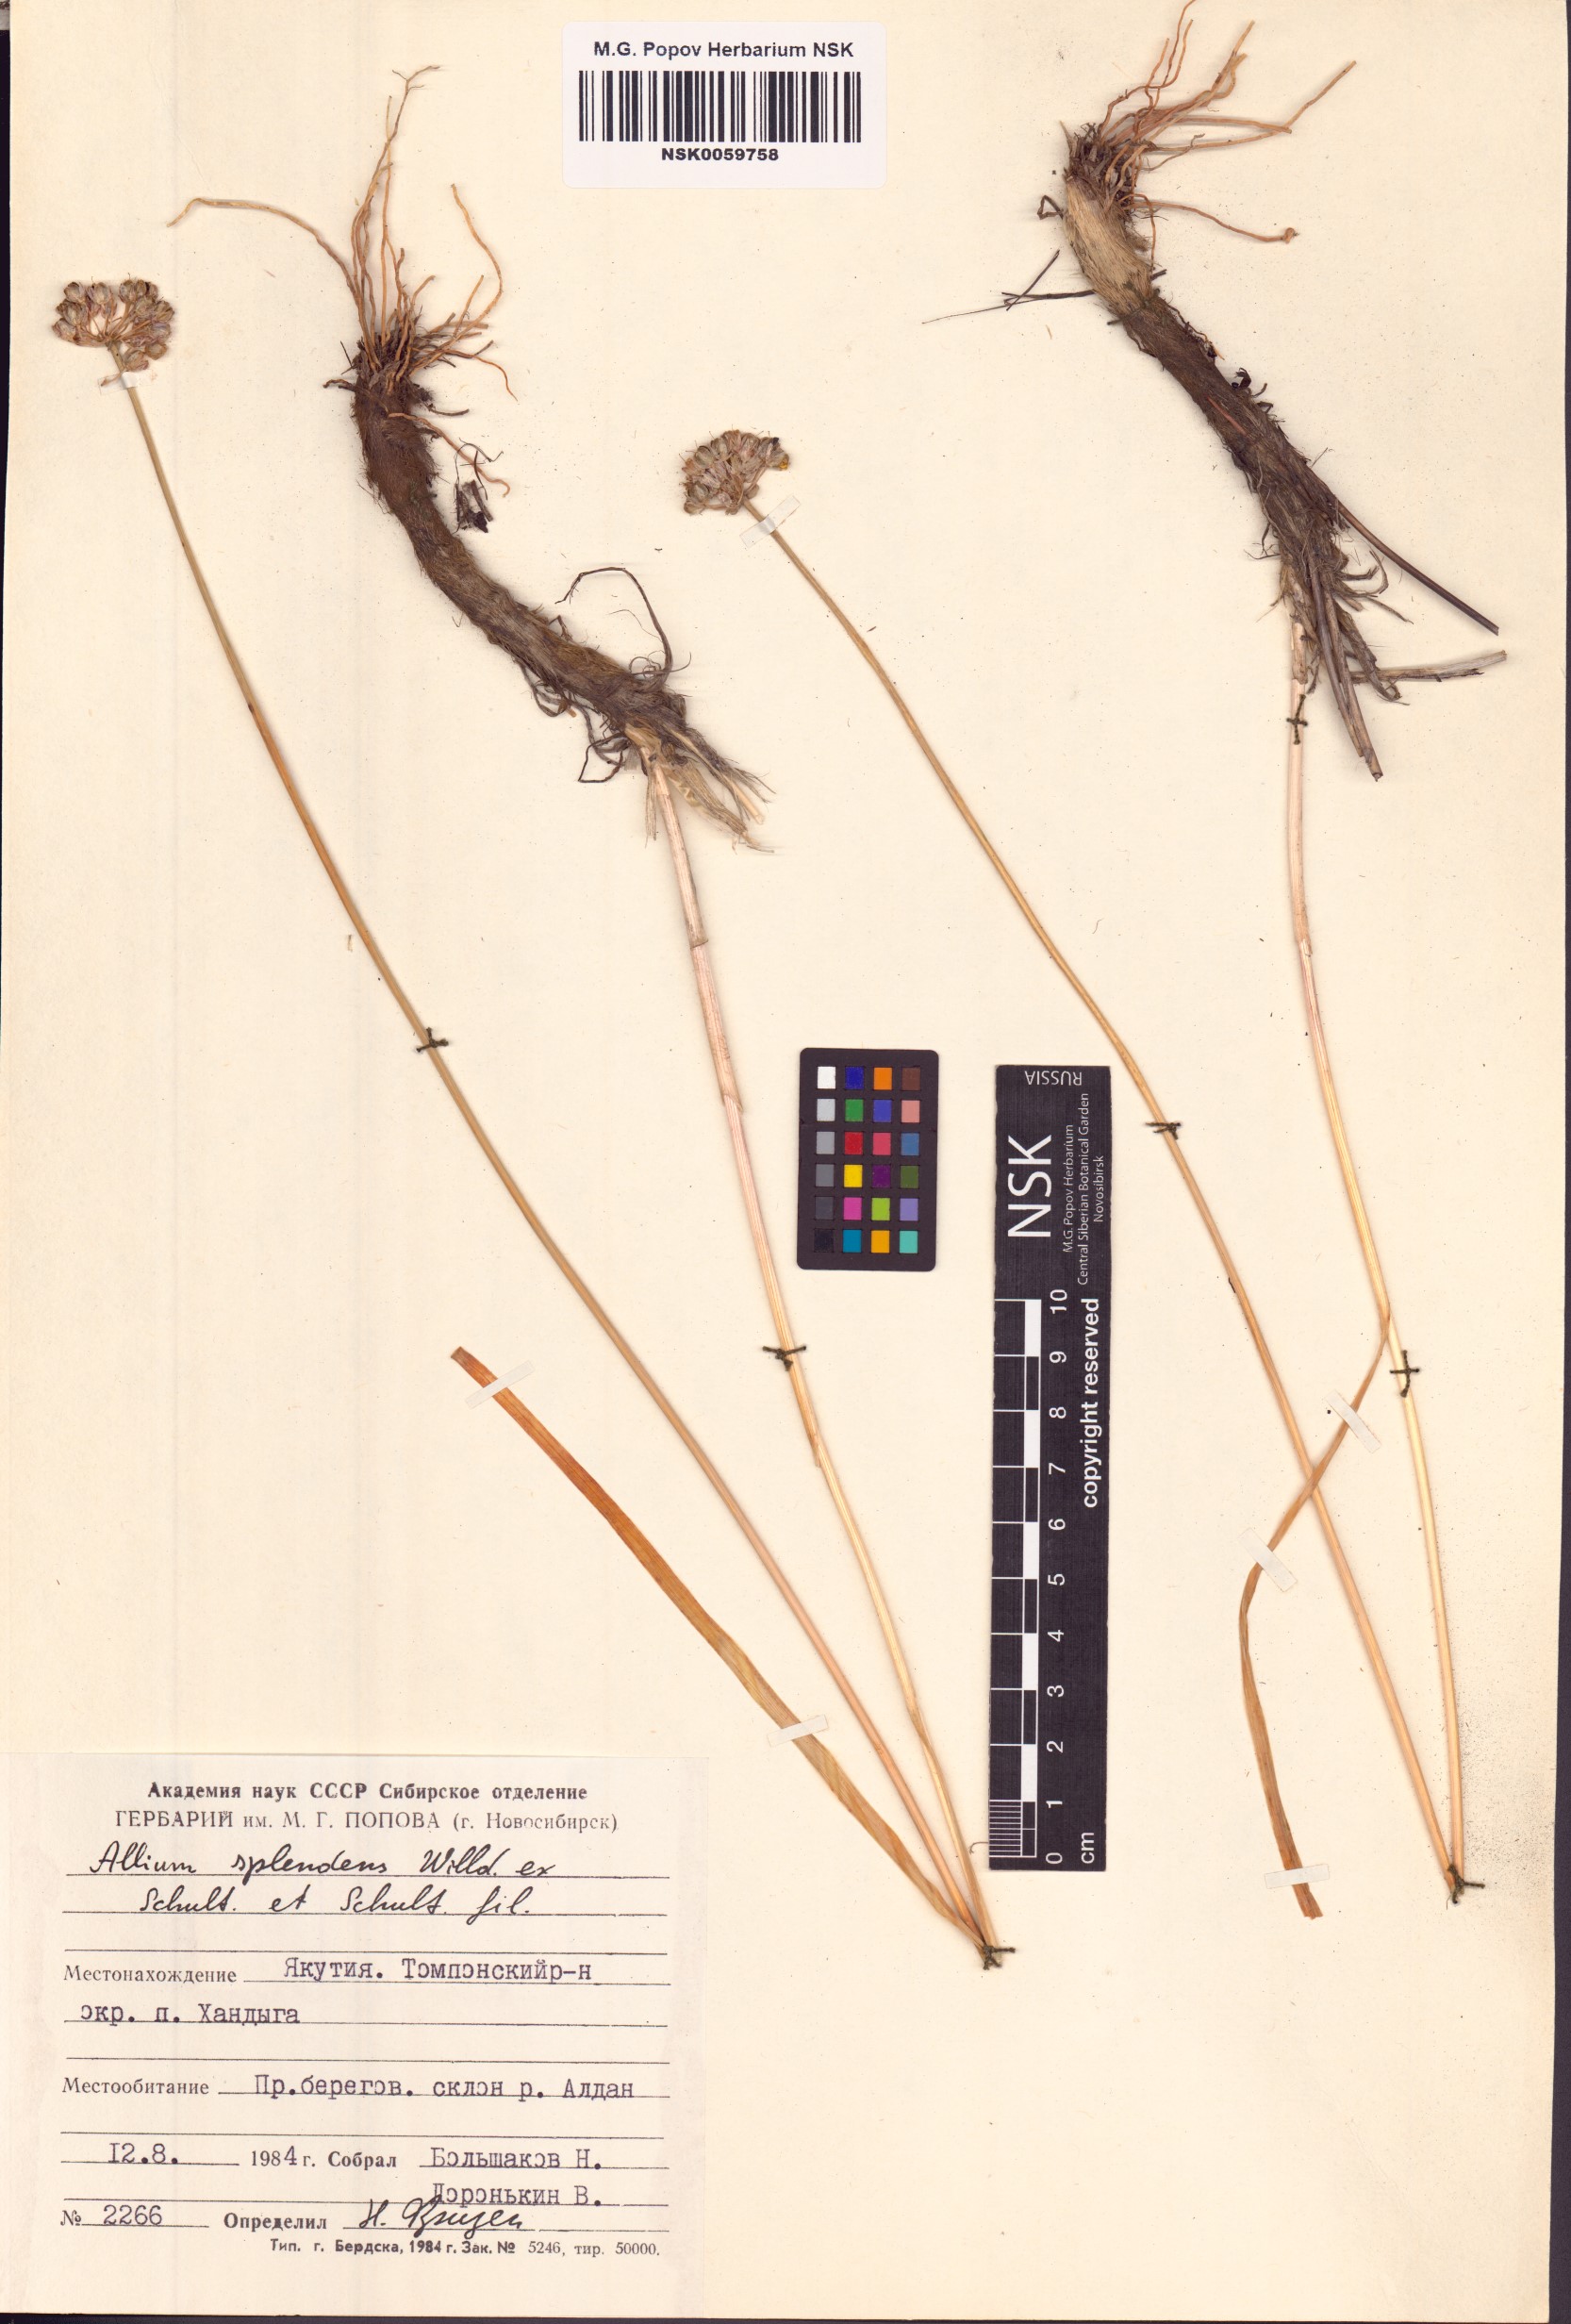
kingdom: Plantae
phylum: Tracheophyta
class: Liliopsida
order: Asparagales
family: Amaryllidaceae
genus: Allium
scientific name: Allium splendens
